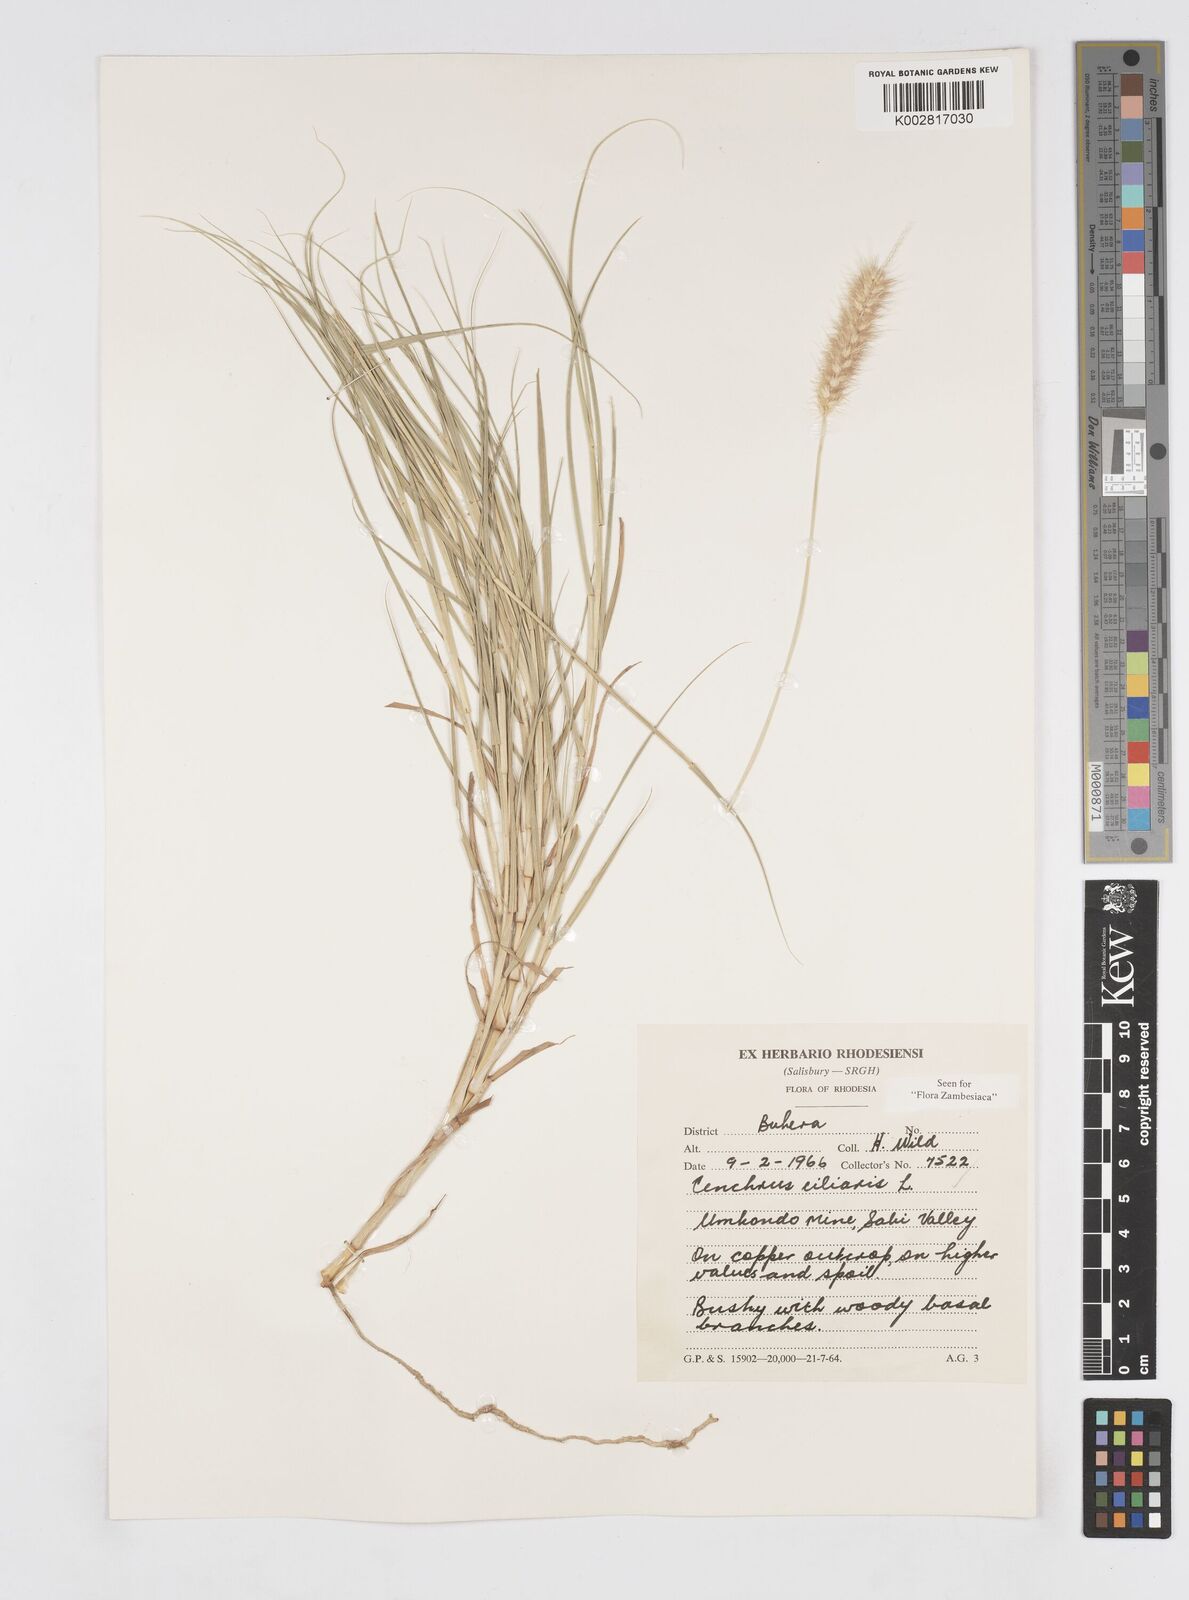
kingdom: Plantae
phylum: Tracheophyta
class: Liliopsida
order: Poales
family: Poaceae
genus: Cenchrus
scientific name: Cenchrus ciliaris
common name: Buffelgrass
